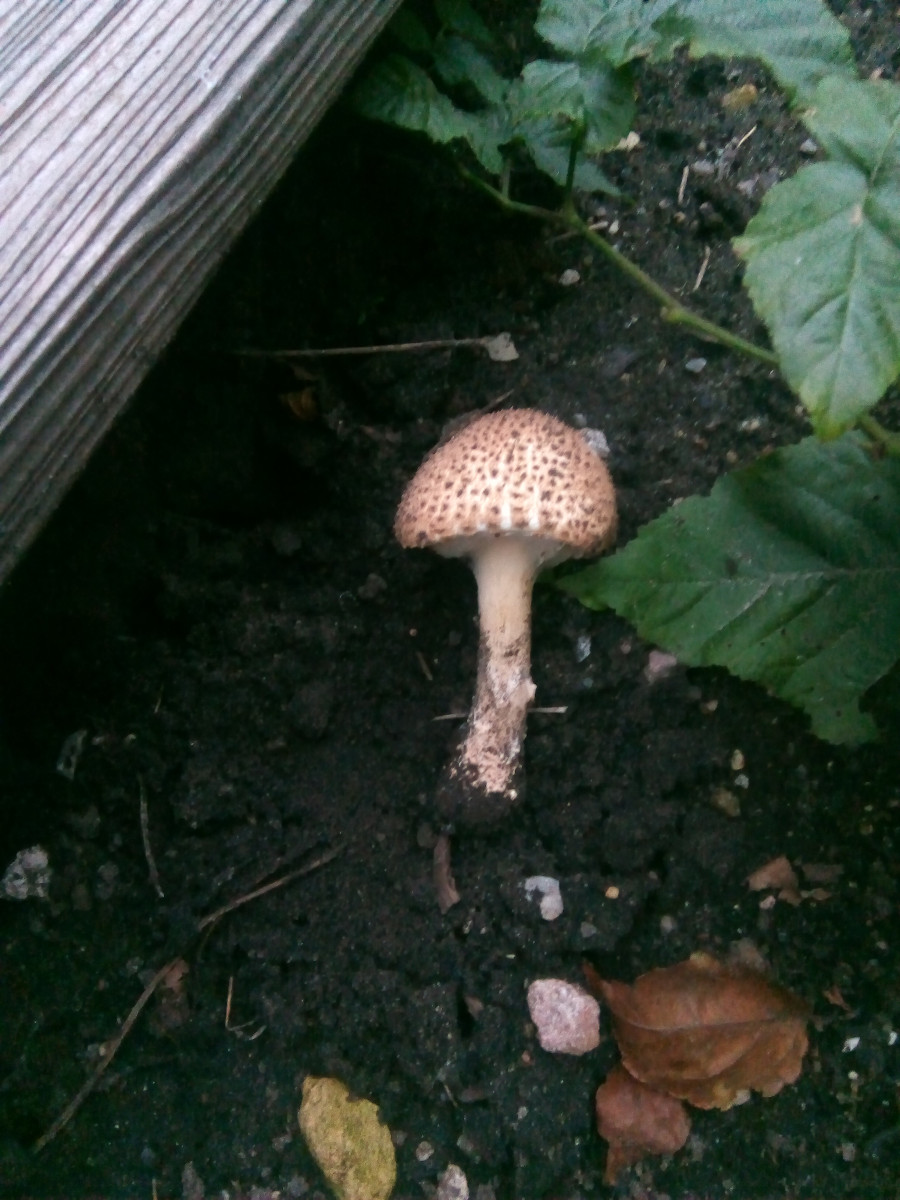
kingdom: Fungi
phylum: Basidiomycota
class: Agaricomycetes
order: Agaricales
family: Agaricaceae
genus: Echinoderma
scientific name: Echinoderma asperum
